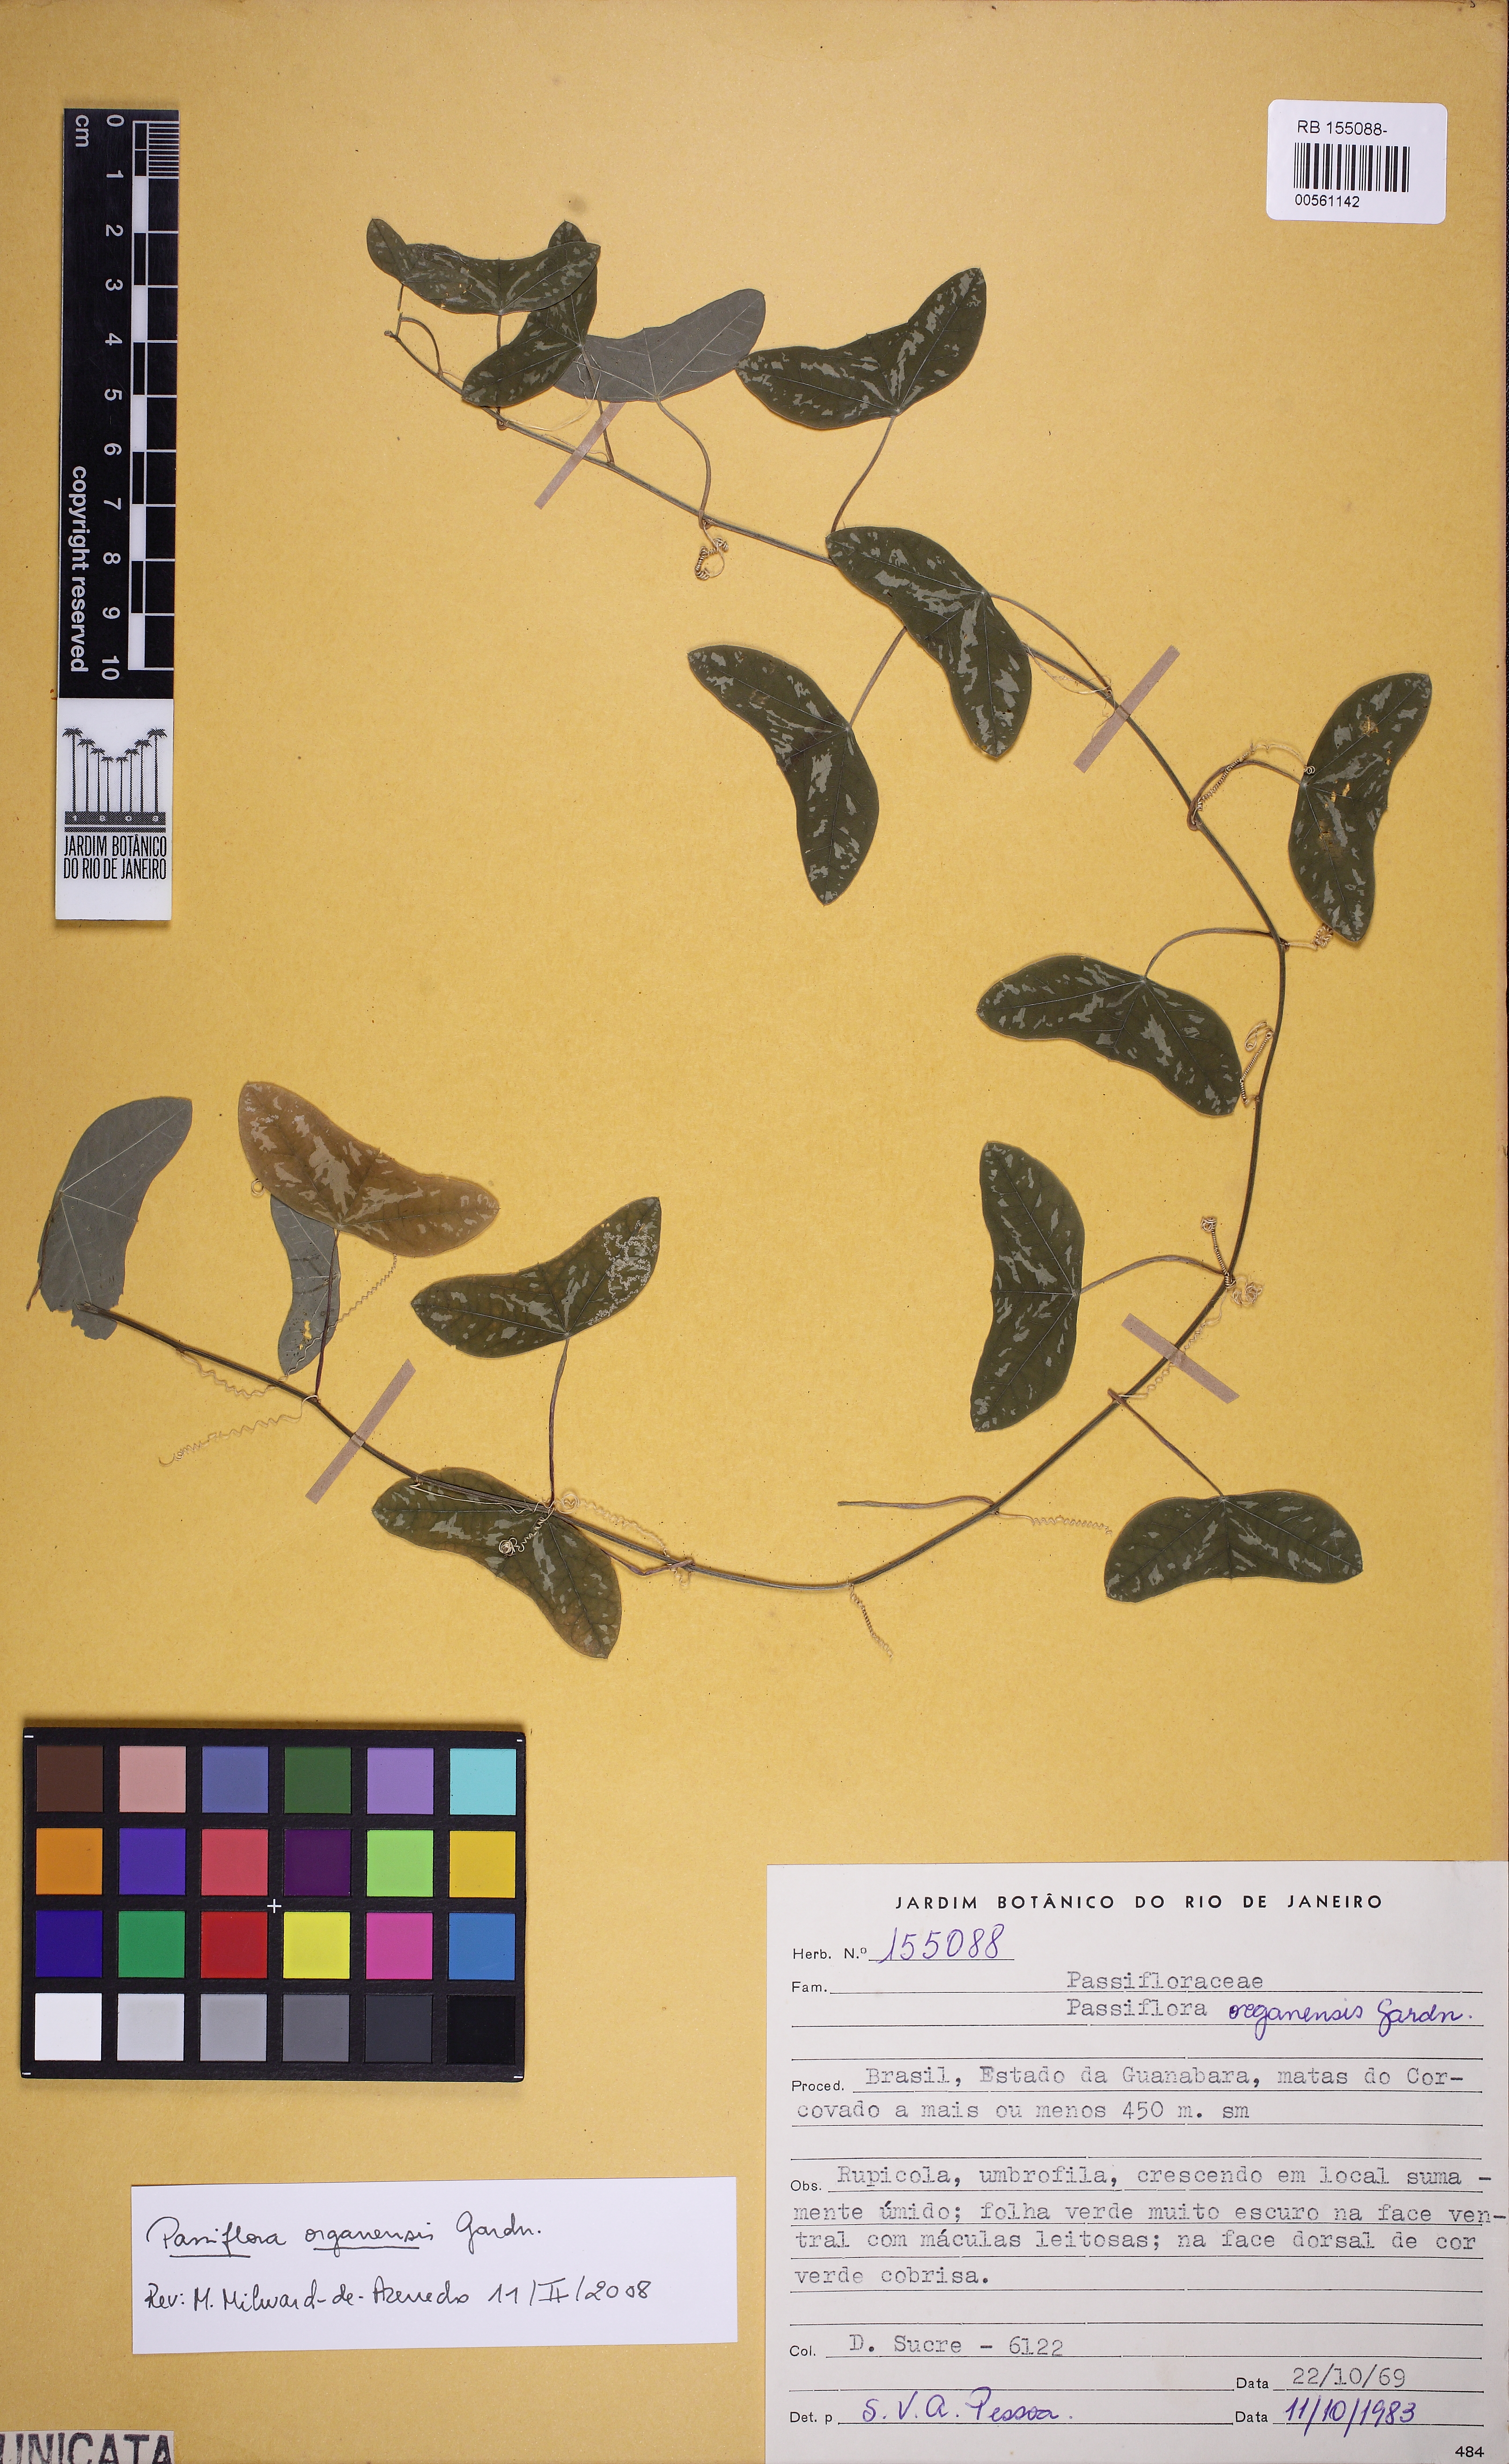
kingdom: Plantae
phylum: Tracheophyta
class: Magnoliopsida
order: Malpighiales
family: Passifloraceae
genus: Passiflora
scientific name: Passiflora porophylla
